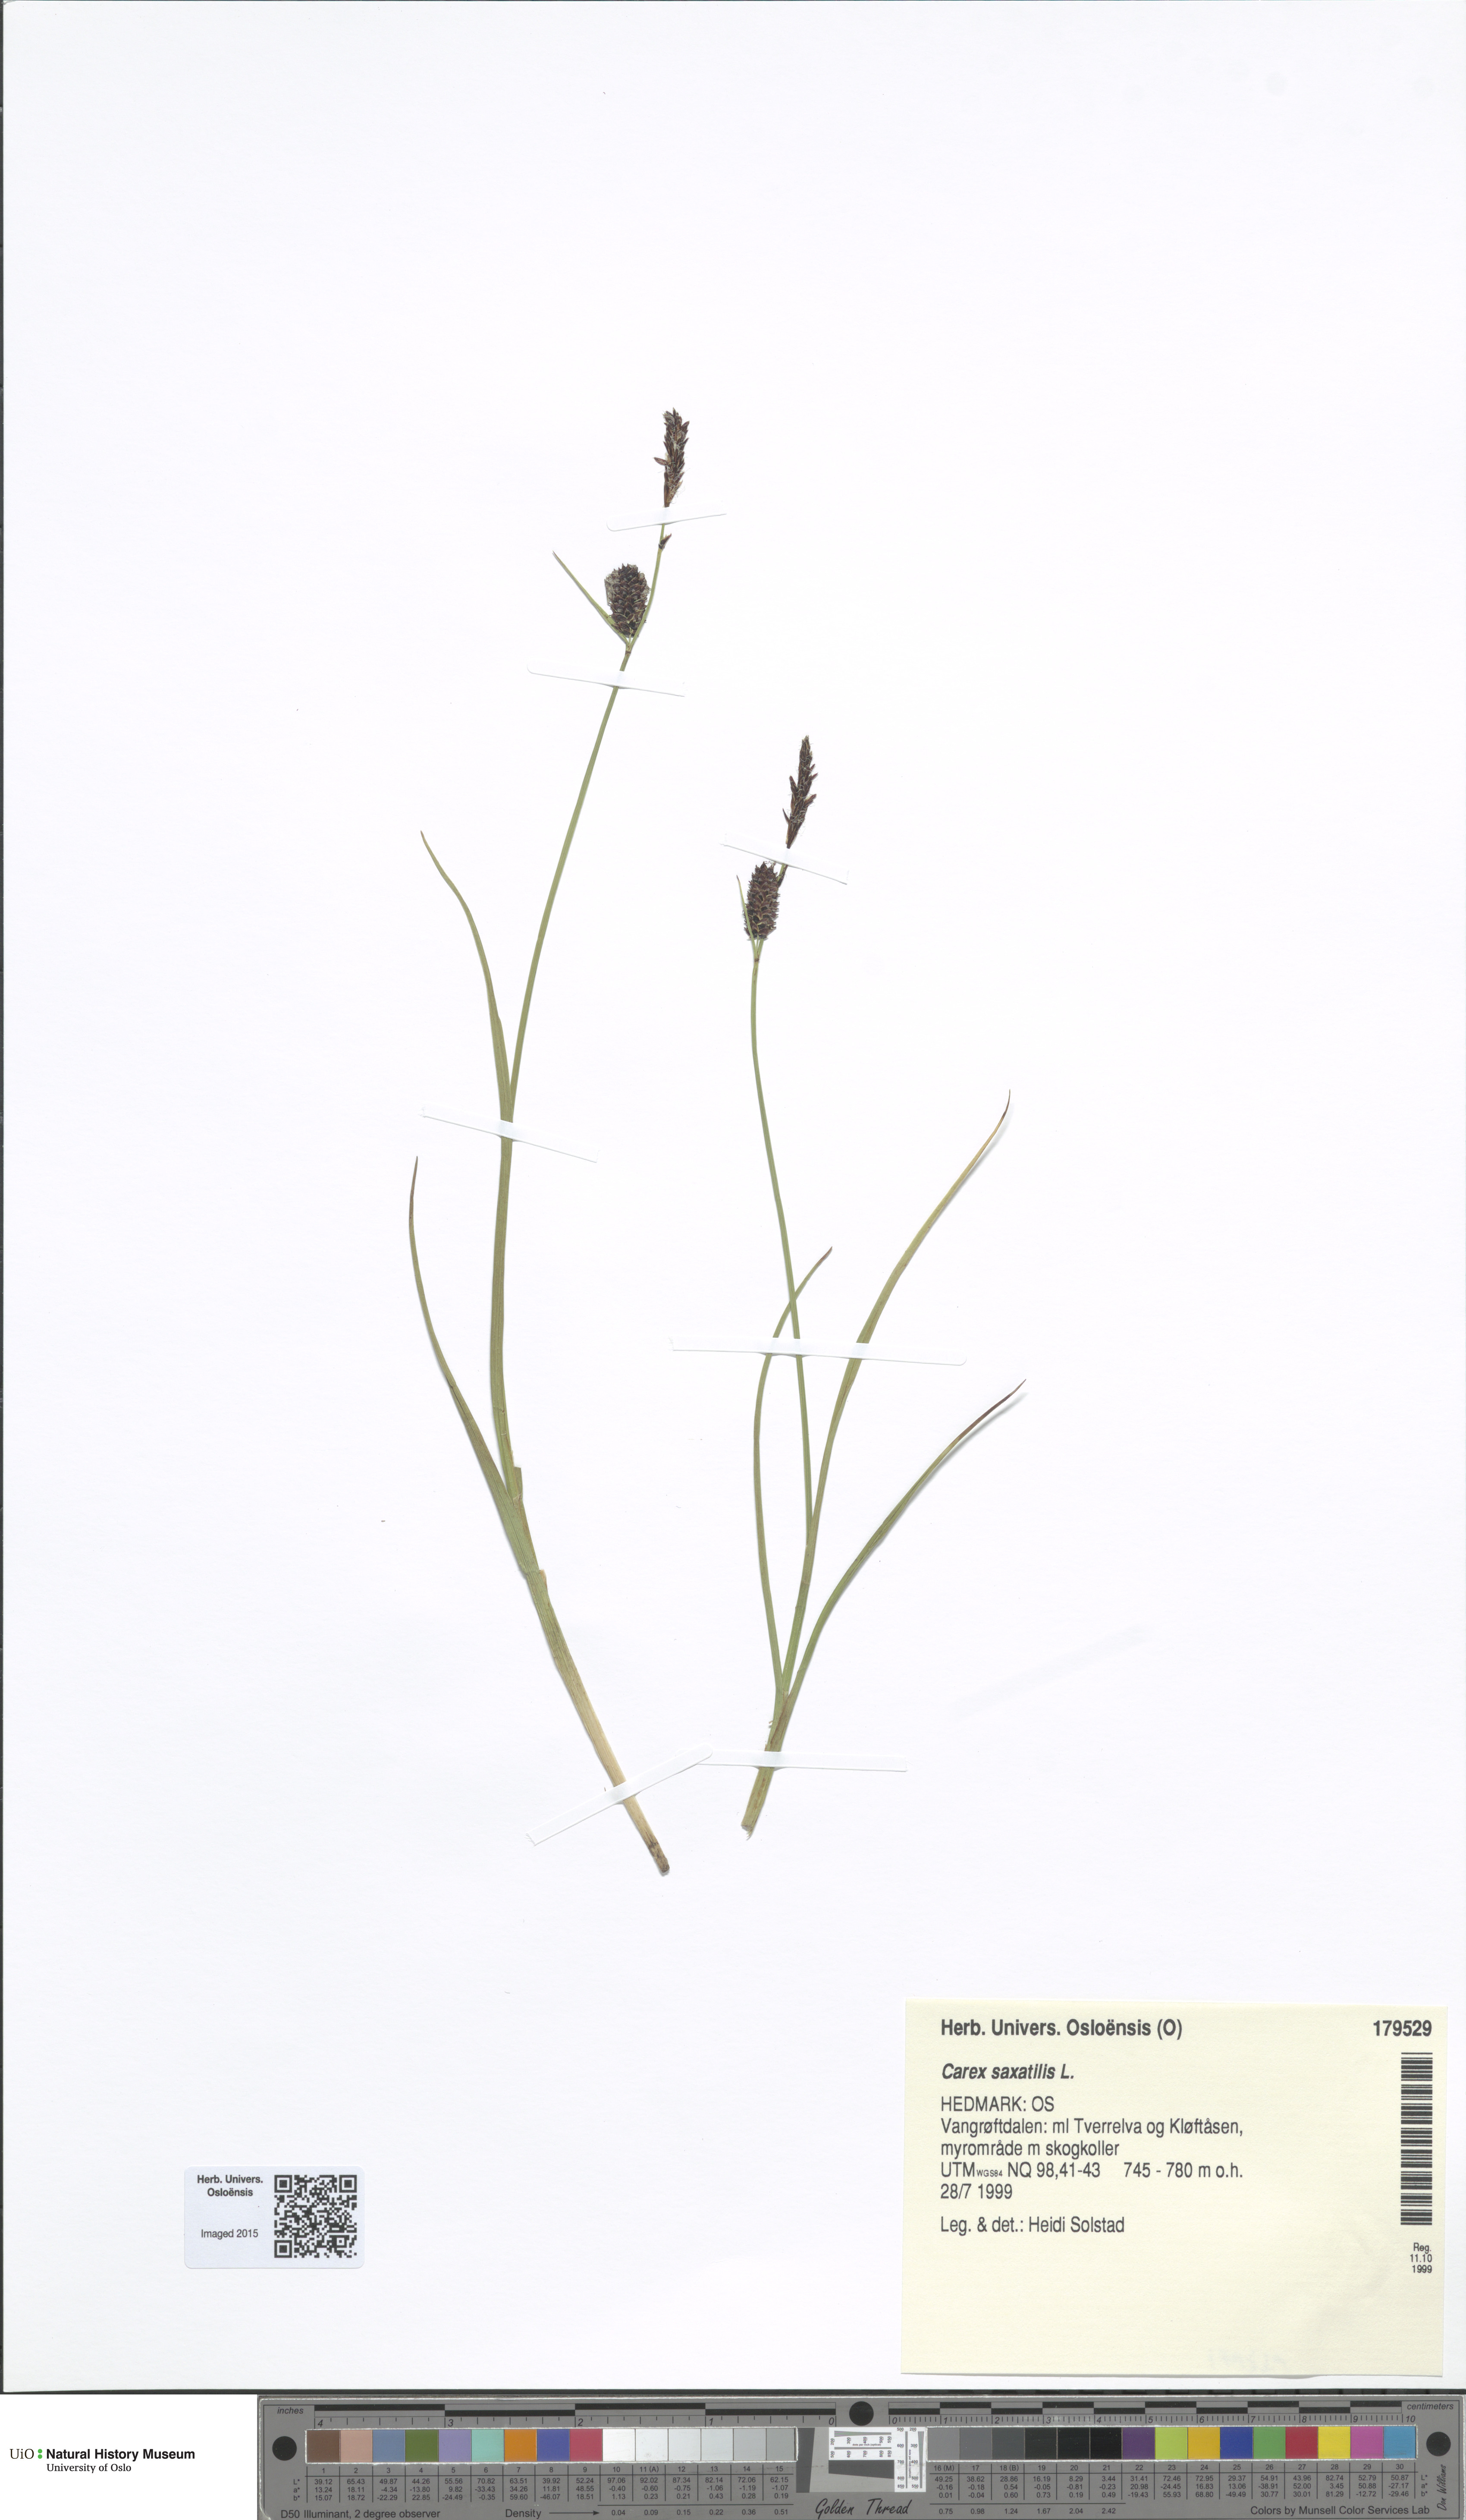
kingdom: Plantae
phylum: Tracheophyta
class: Liliopsida
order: Poales
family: Cyperaceae
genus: Carex
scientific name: Carex saxatilis
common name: Russet sedge
